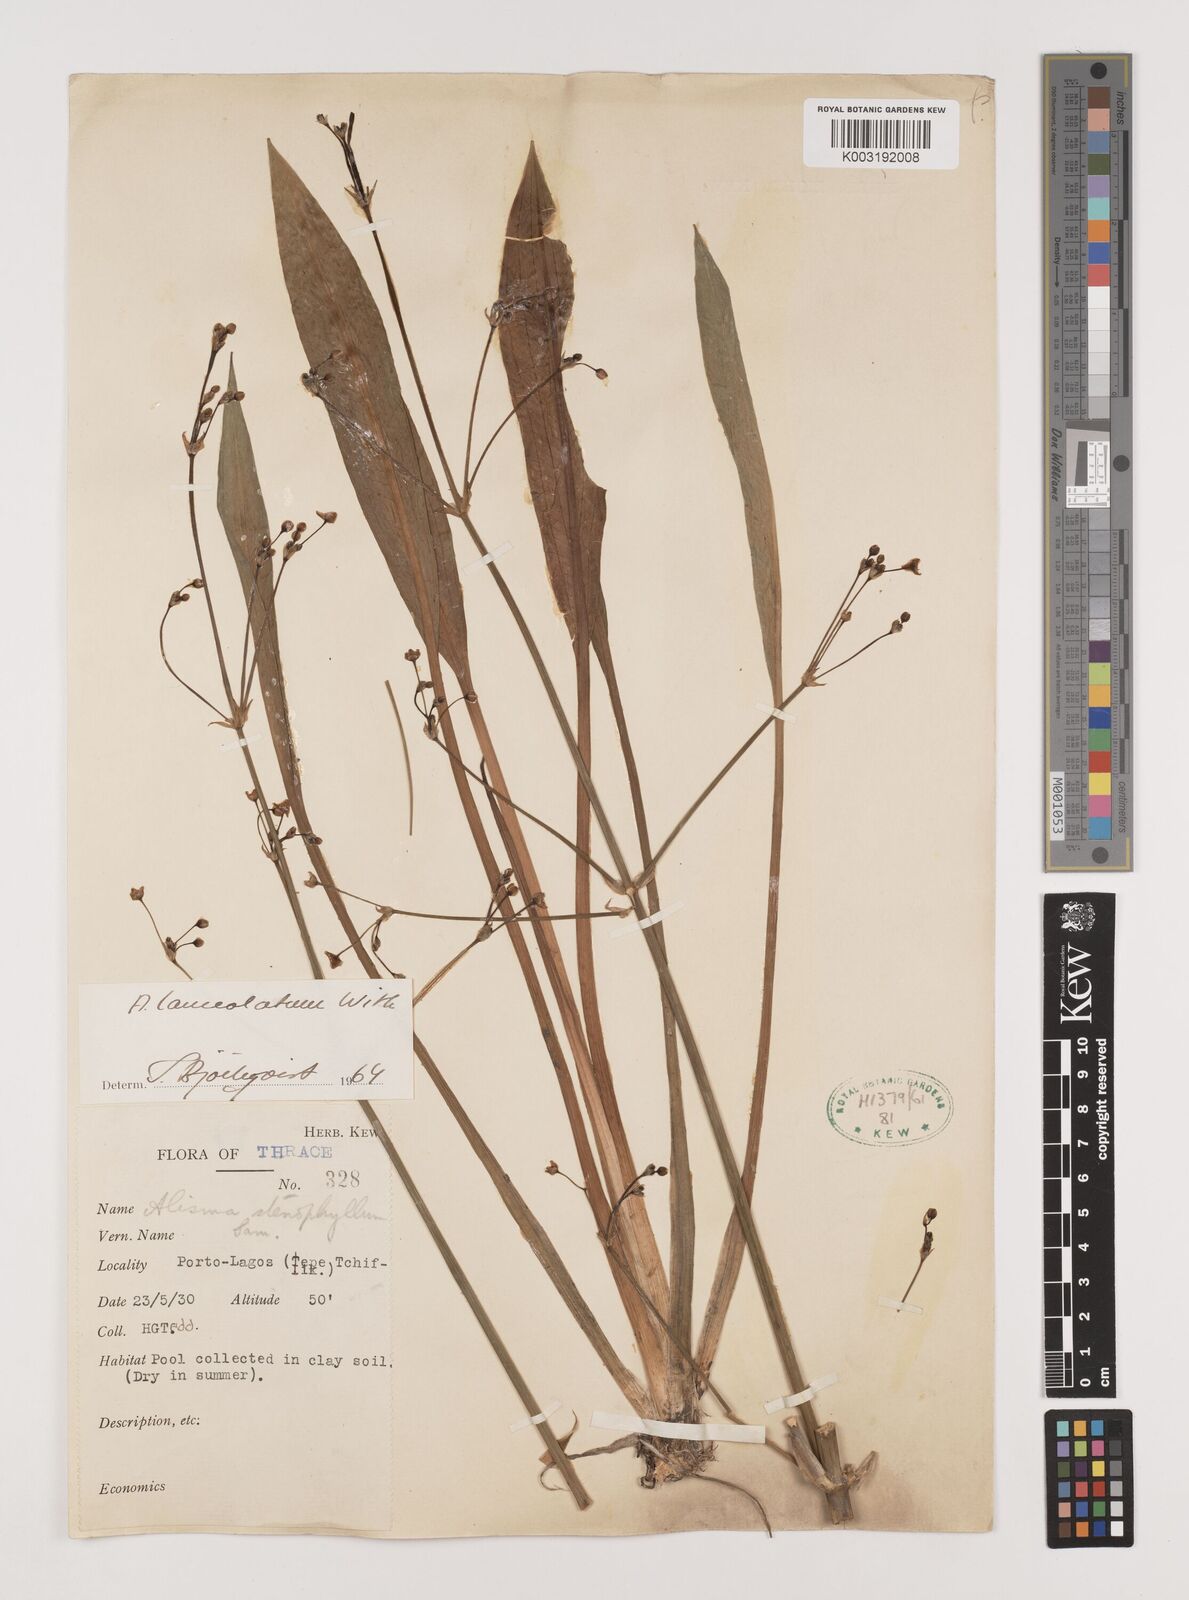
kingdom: Plantae
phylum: Tracheophyta
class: Liliopsida
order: Alismatales
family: Alismataceae
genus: Alisma
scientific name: Alisma lanceolatum
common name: Narrow-leaved water-plantain
